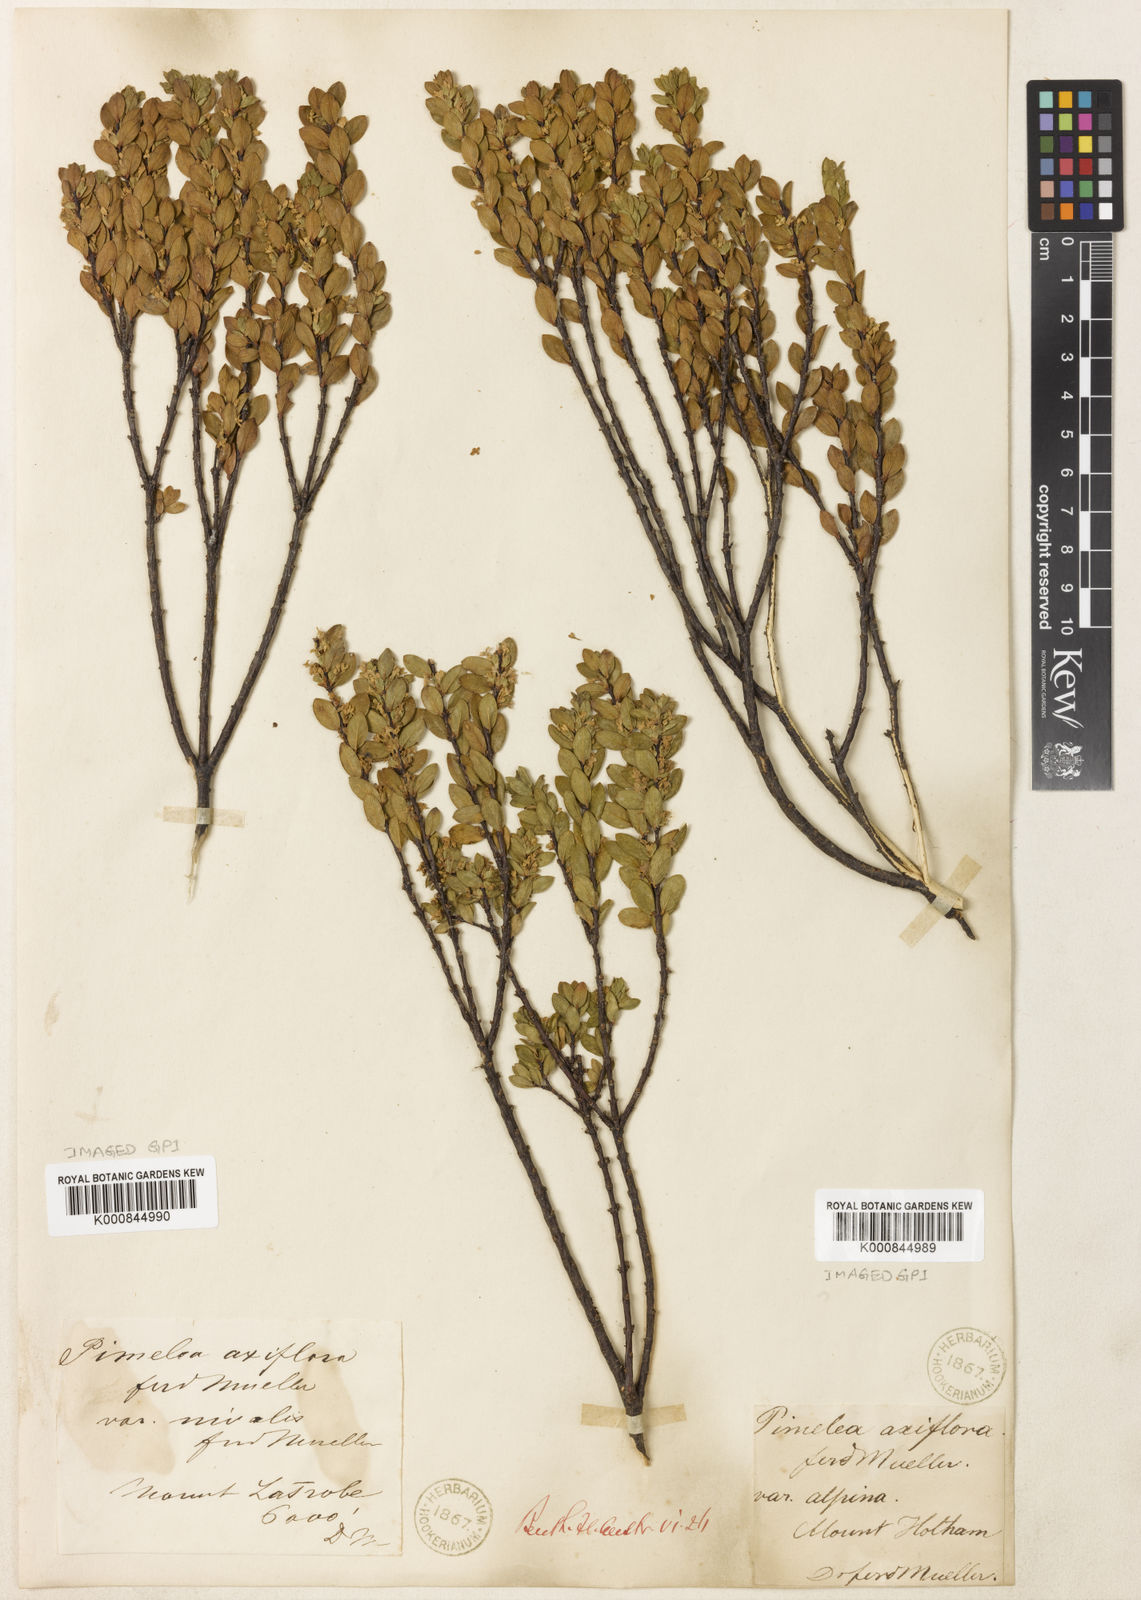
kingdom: Plantae
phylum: Tracheophyta
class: Magnoliopsida
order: Malvales
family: Thymelaeaceae
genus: Pimelea
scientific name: Pimelea
